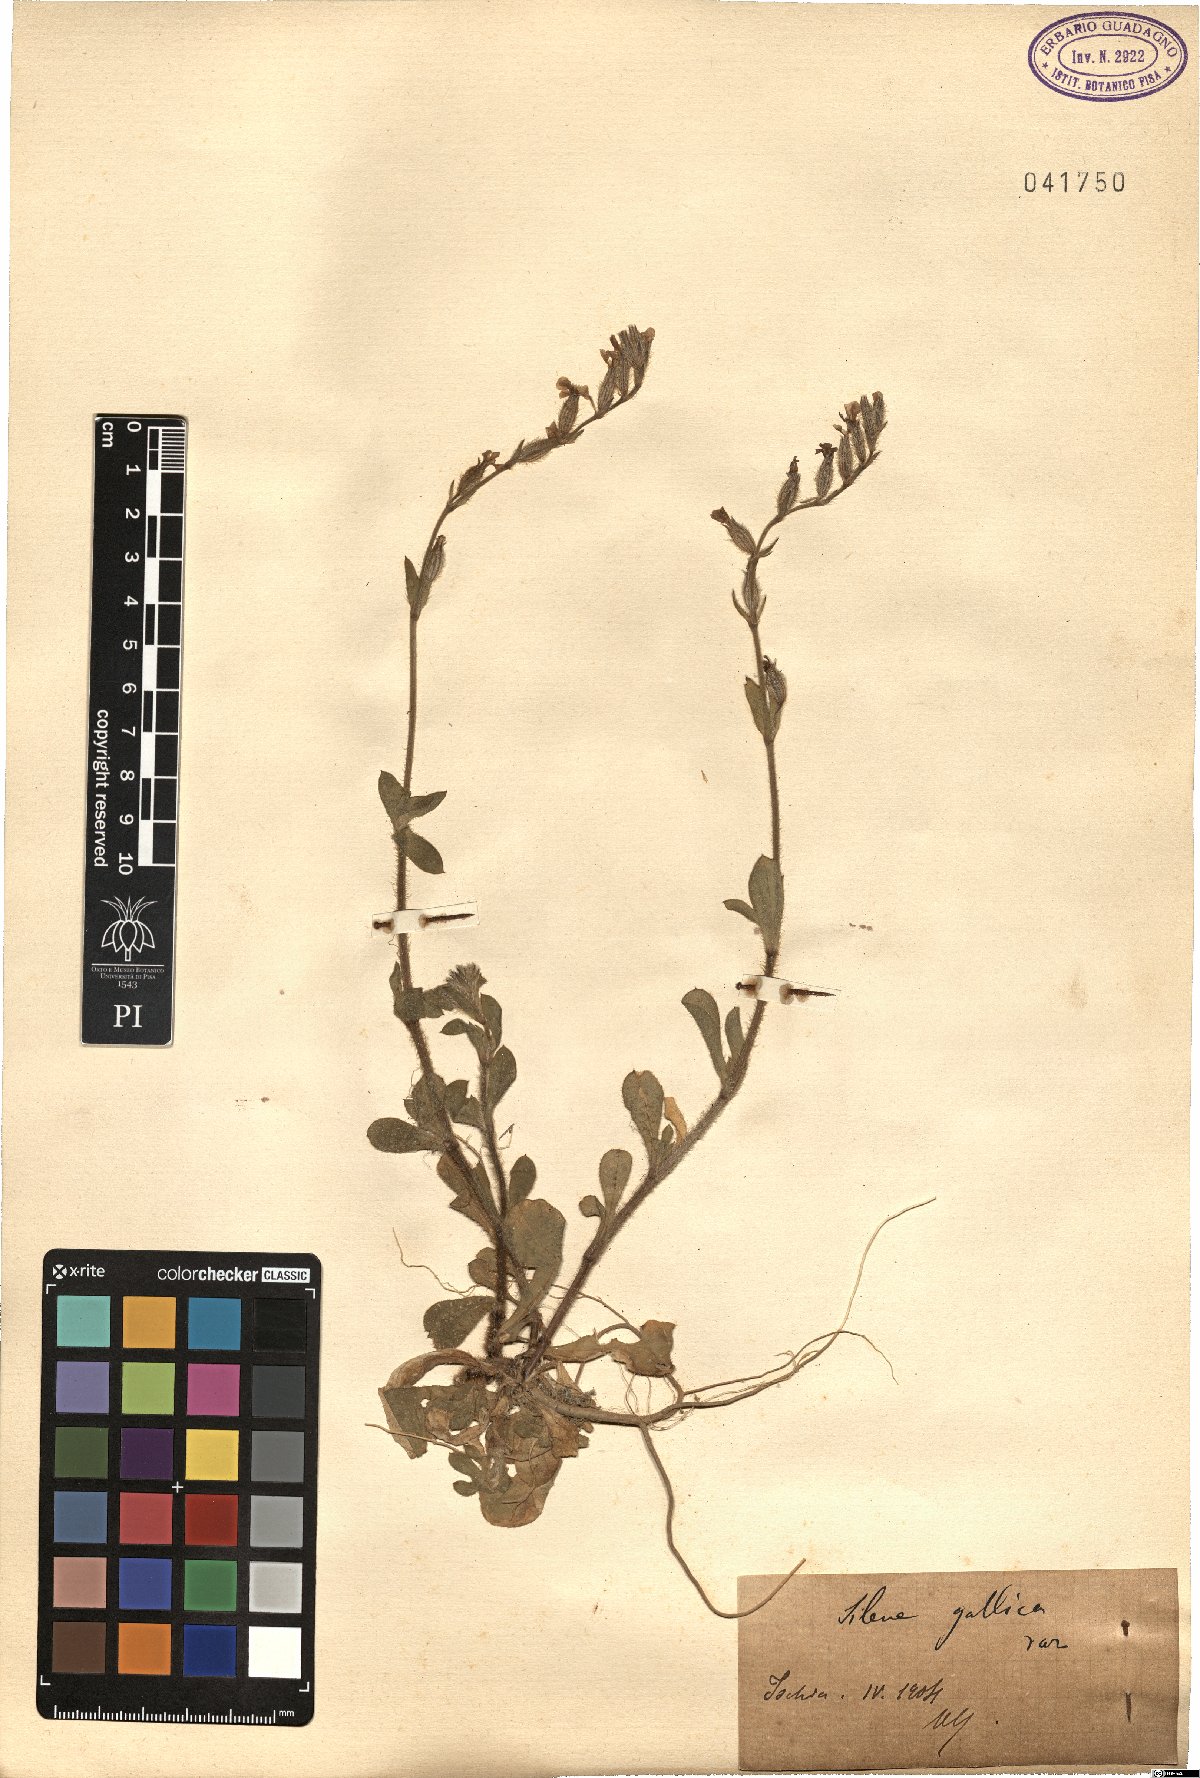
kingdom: Plantae
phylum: Tracheophyta
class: Magnoliopsida
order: Caryophyllales
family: Caryophyllaceae
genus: Silene
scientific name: Silene gallica
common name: Small-flowered catchfly
